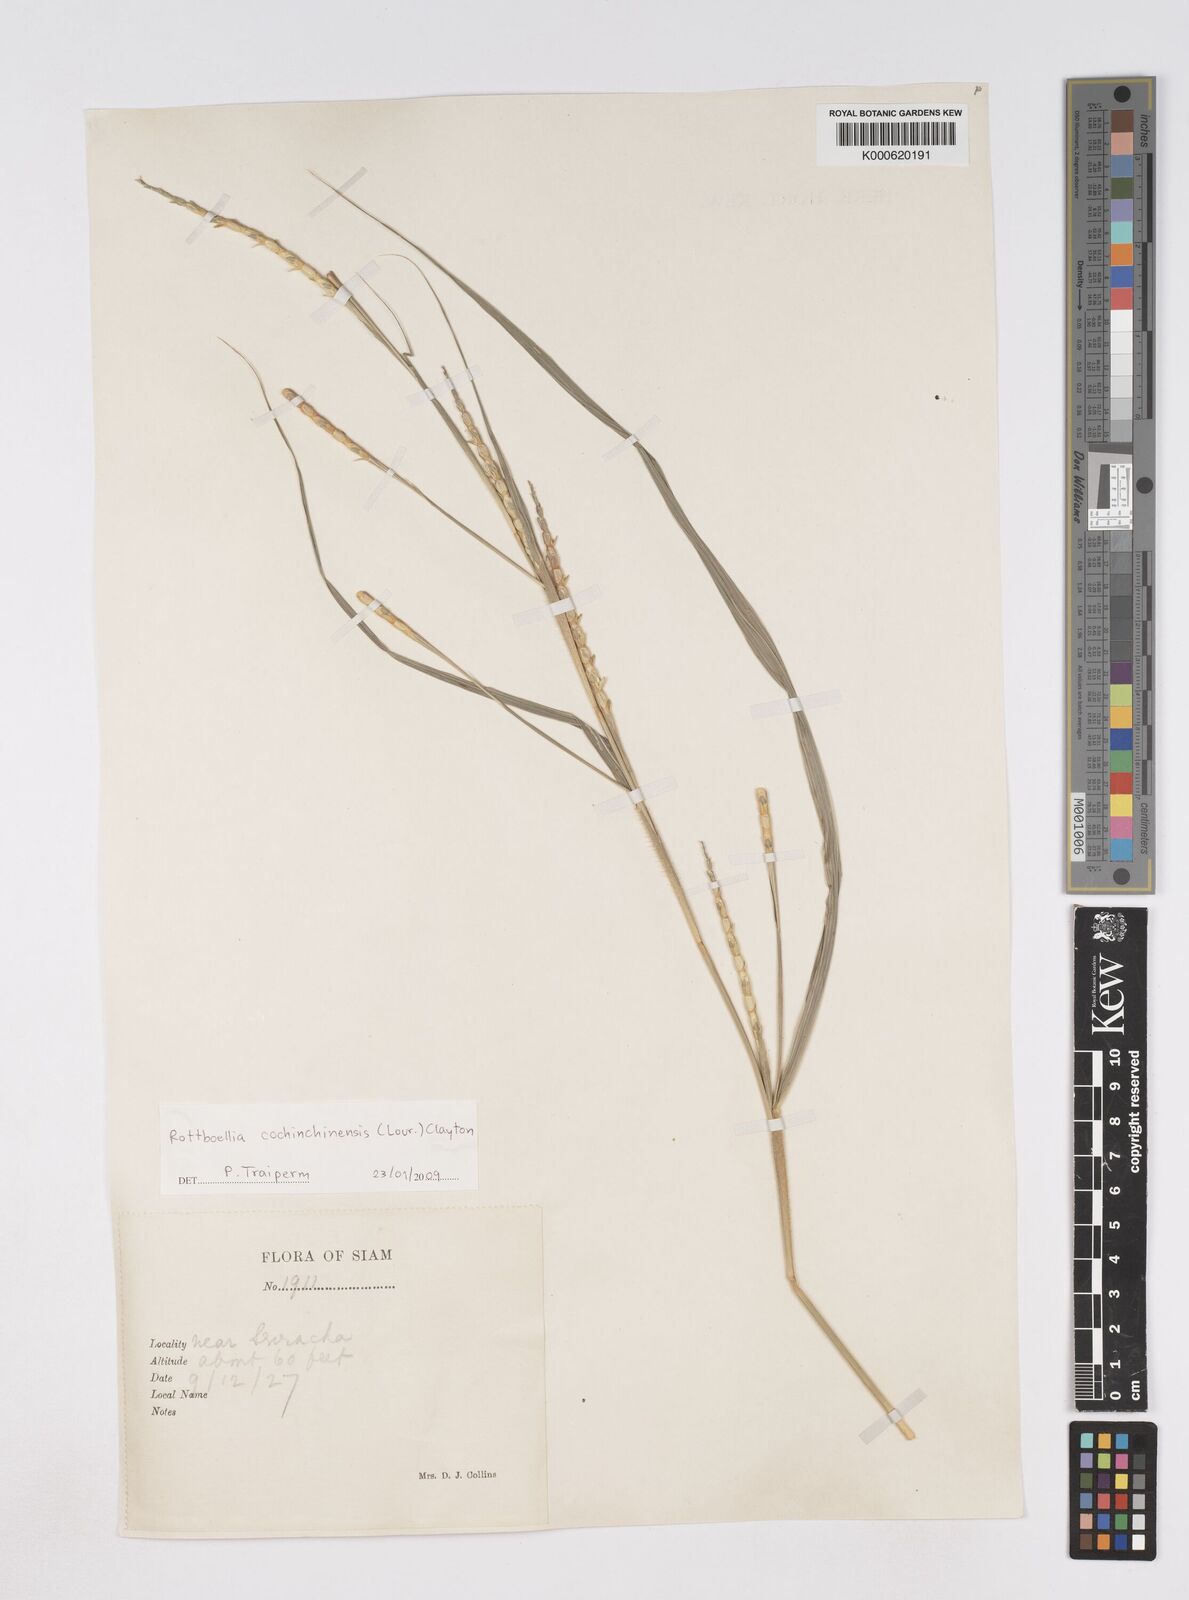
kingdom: Plantae
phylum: Tracheophyta
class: Liliopsida
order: Poales
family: Poaceae
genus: Rottboellia
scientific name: Rottboellia cochinchinensis
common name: Itchgrass
